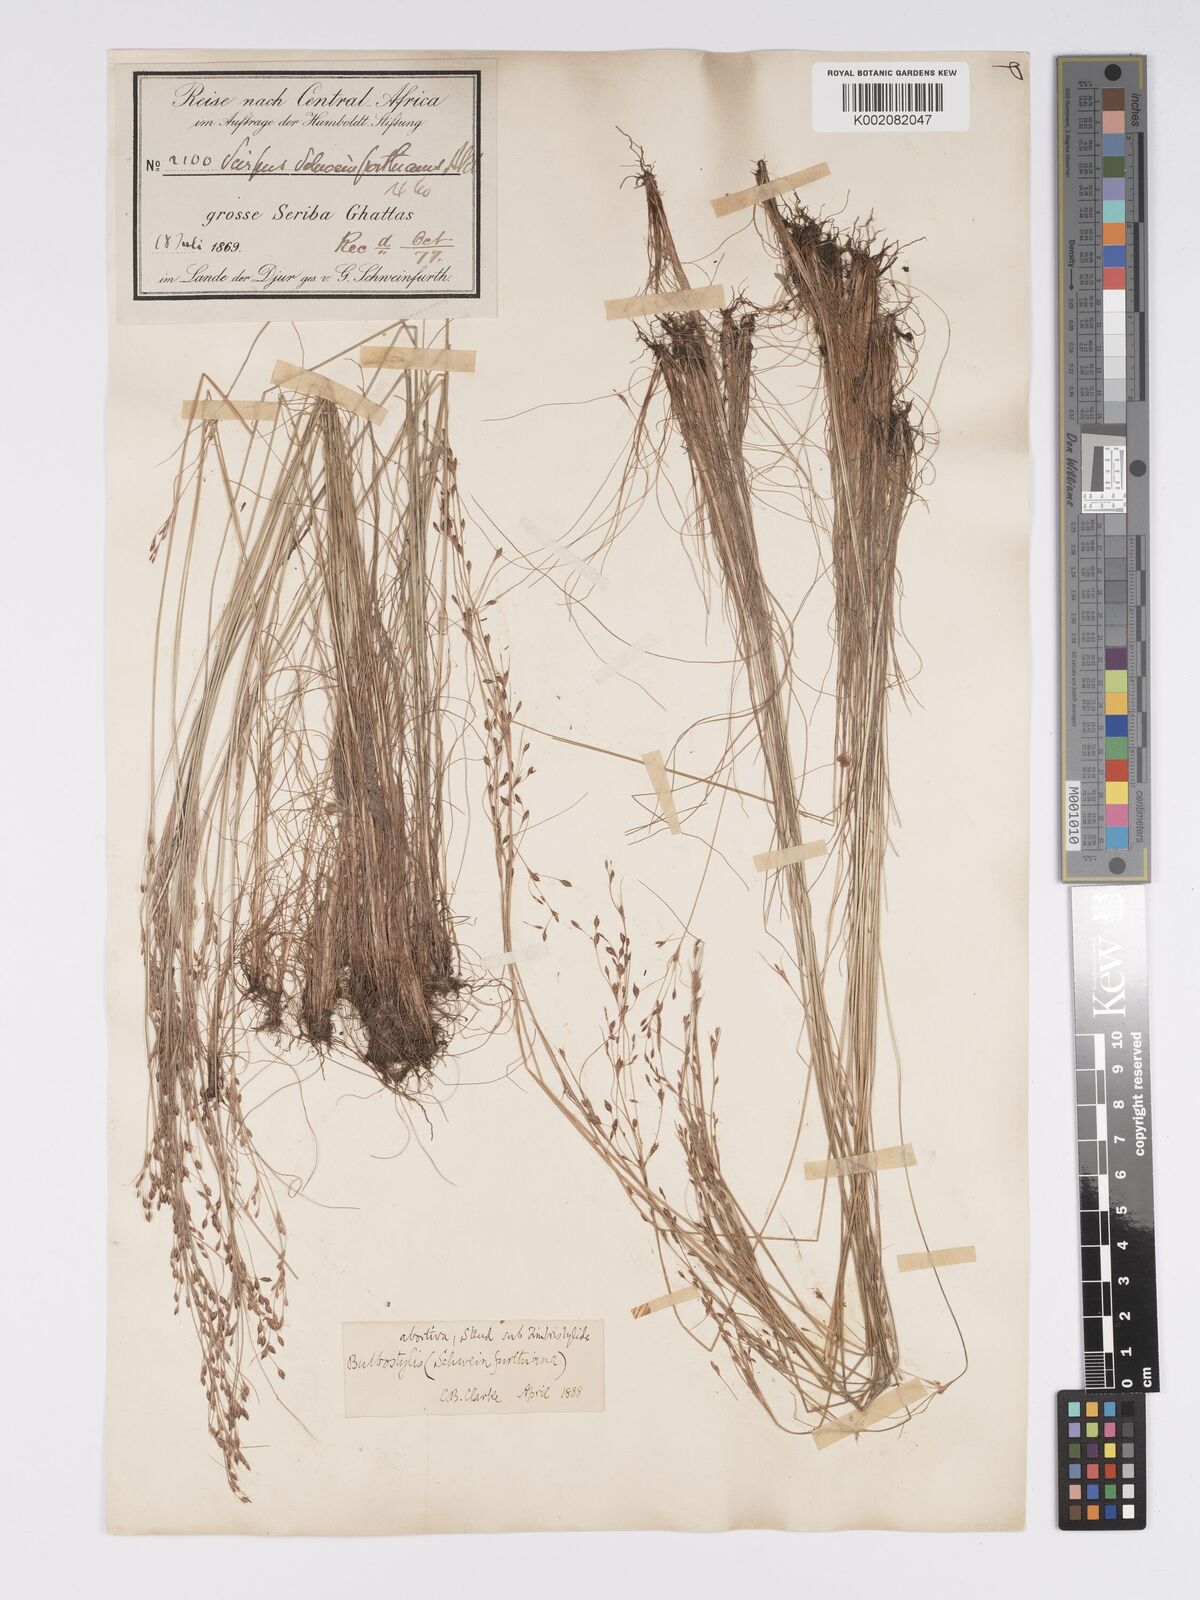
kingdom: Plantae
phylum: Tracheophyta
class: Liliopsida
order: Poales
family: Cyperaceae
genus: Bulbostylis
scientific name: Bulbostylis abortiva
